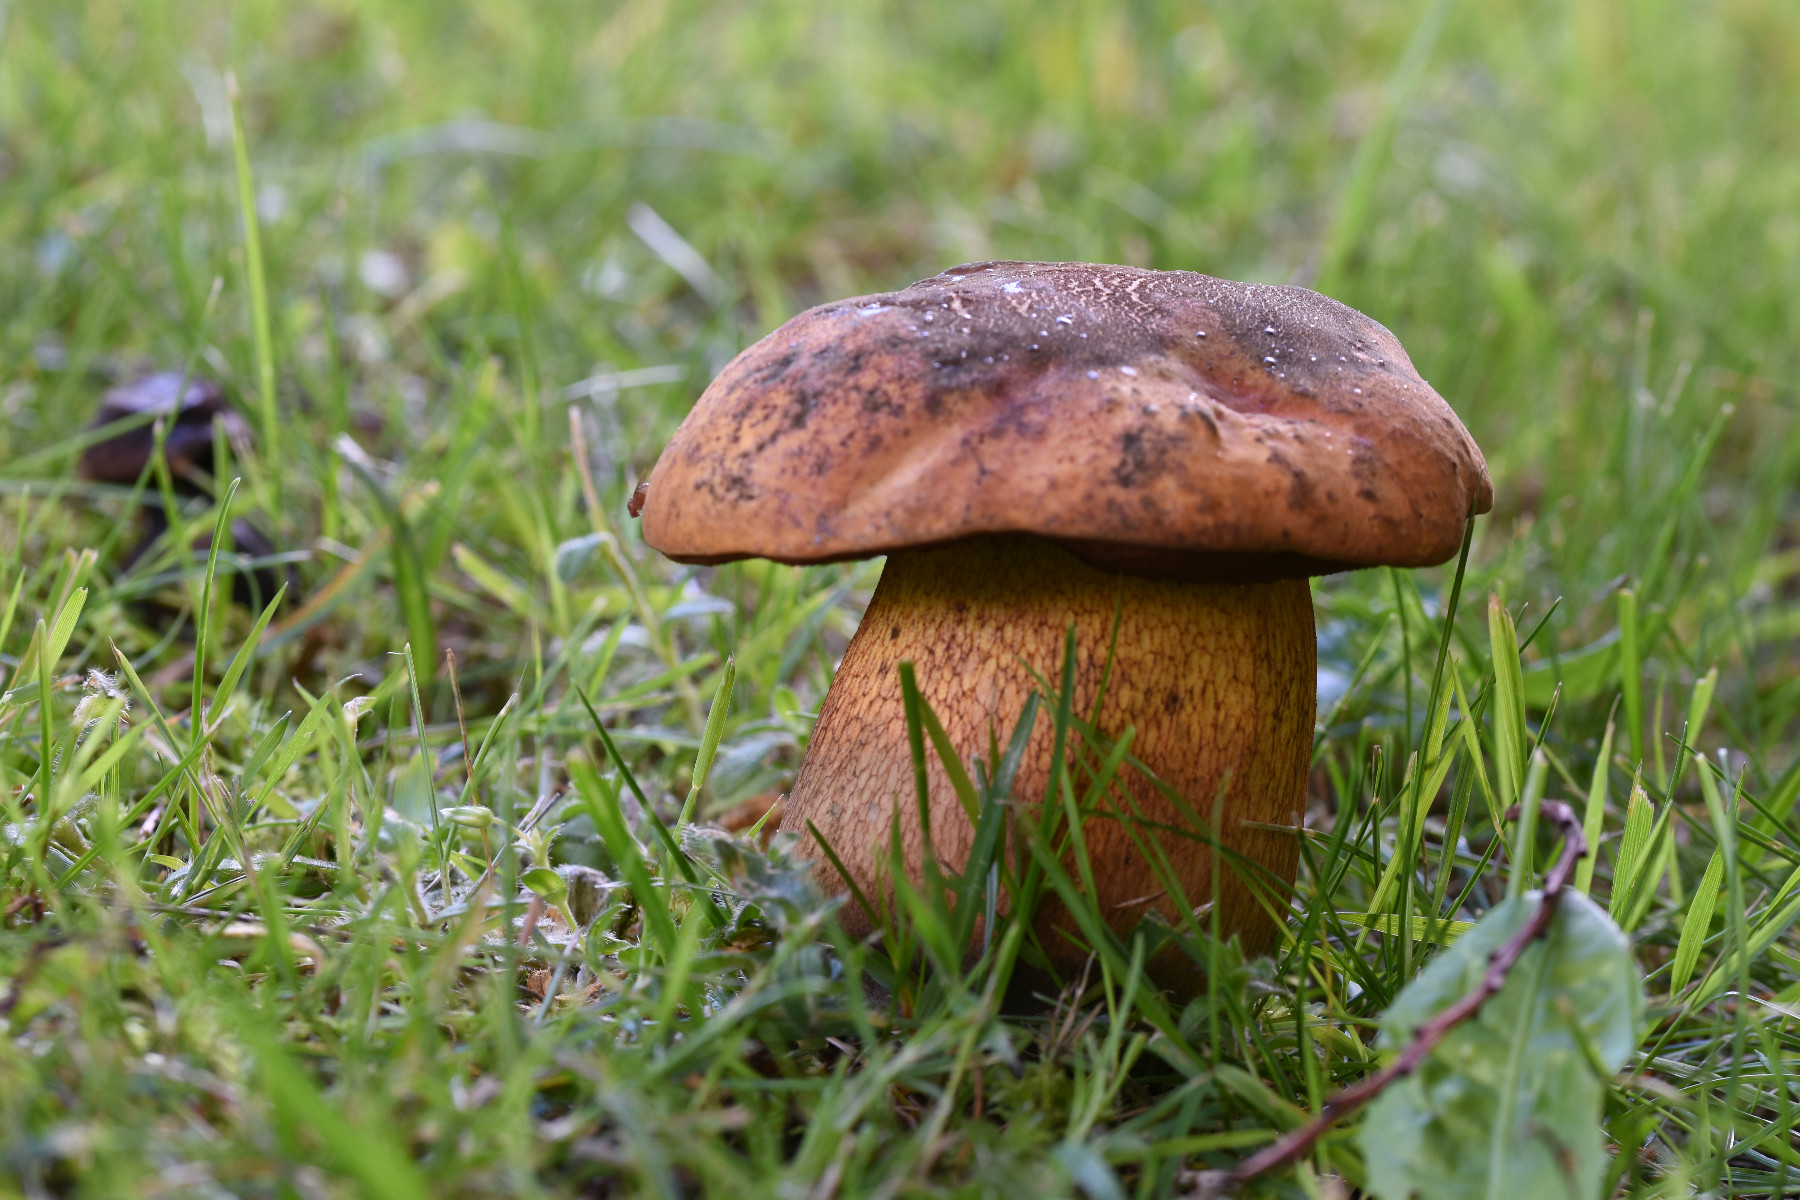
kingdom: Fungi
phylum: Basidiomycota
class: Agaricomycetes
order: Boletales
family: Boletaceae
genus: Suillellus
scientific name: Suillellus luridus
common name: netstokket indigorørhat
